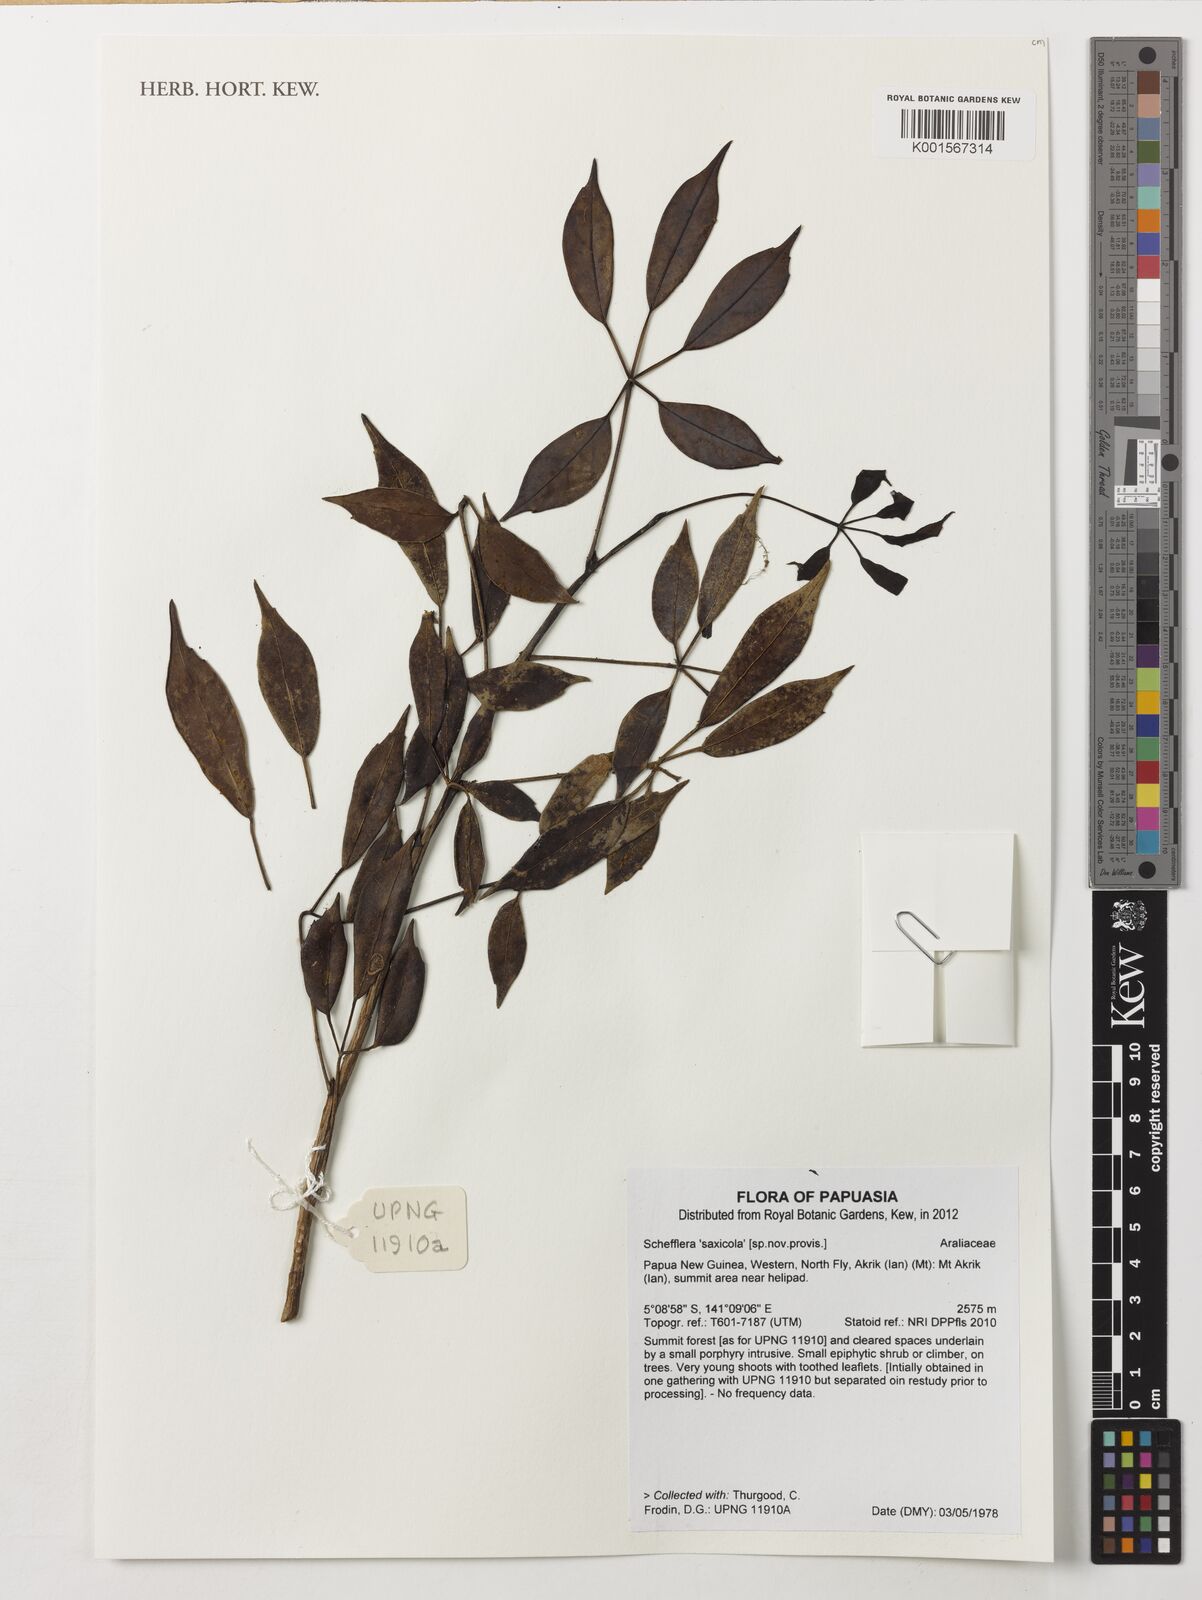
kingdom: Plantae
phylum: Tracheophyta
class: Magnoliopsida
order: Apiales
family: Araliaceae
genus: Schefflera
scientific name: Schefflera
